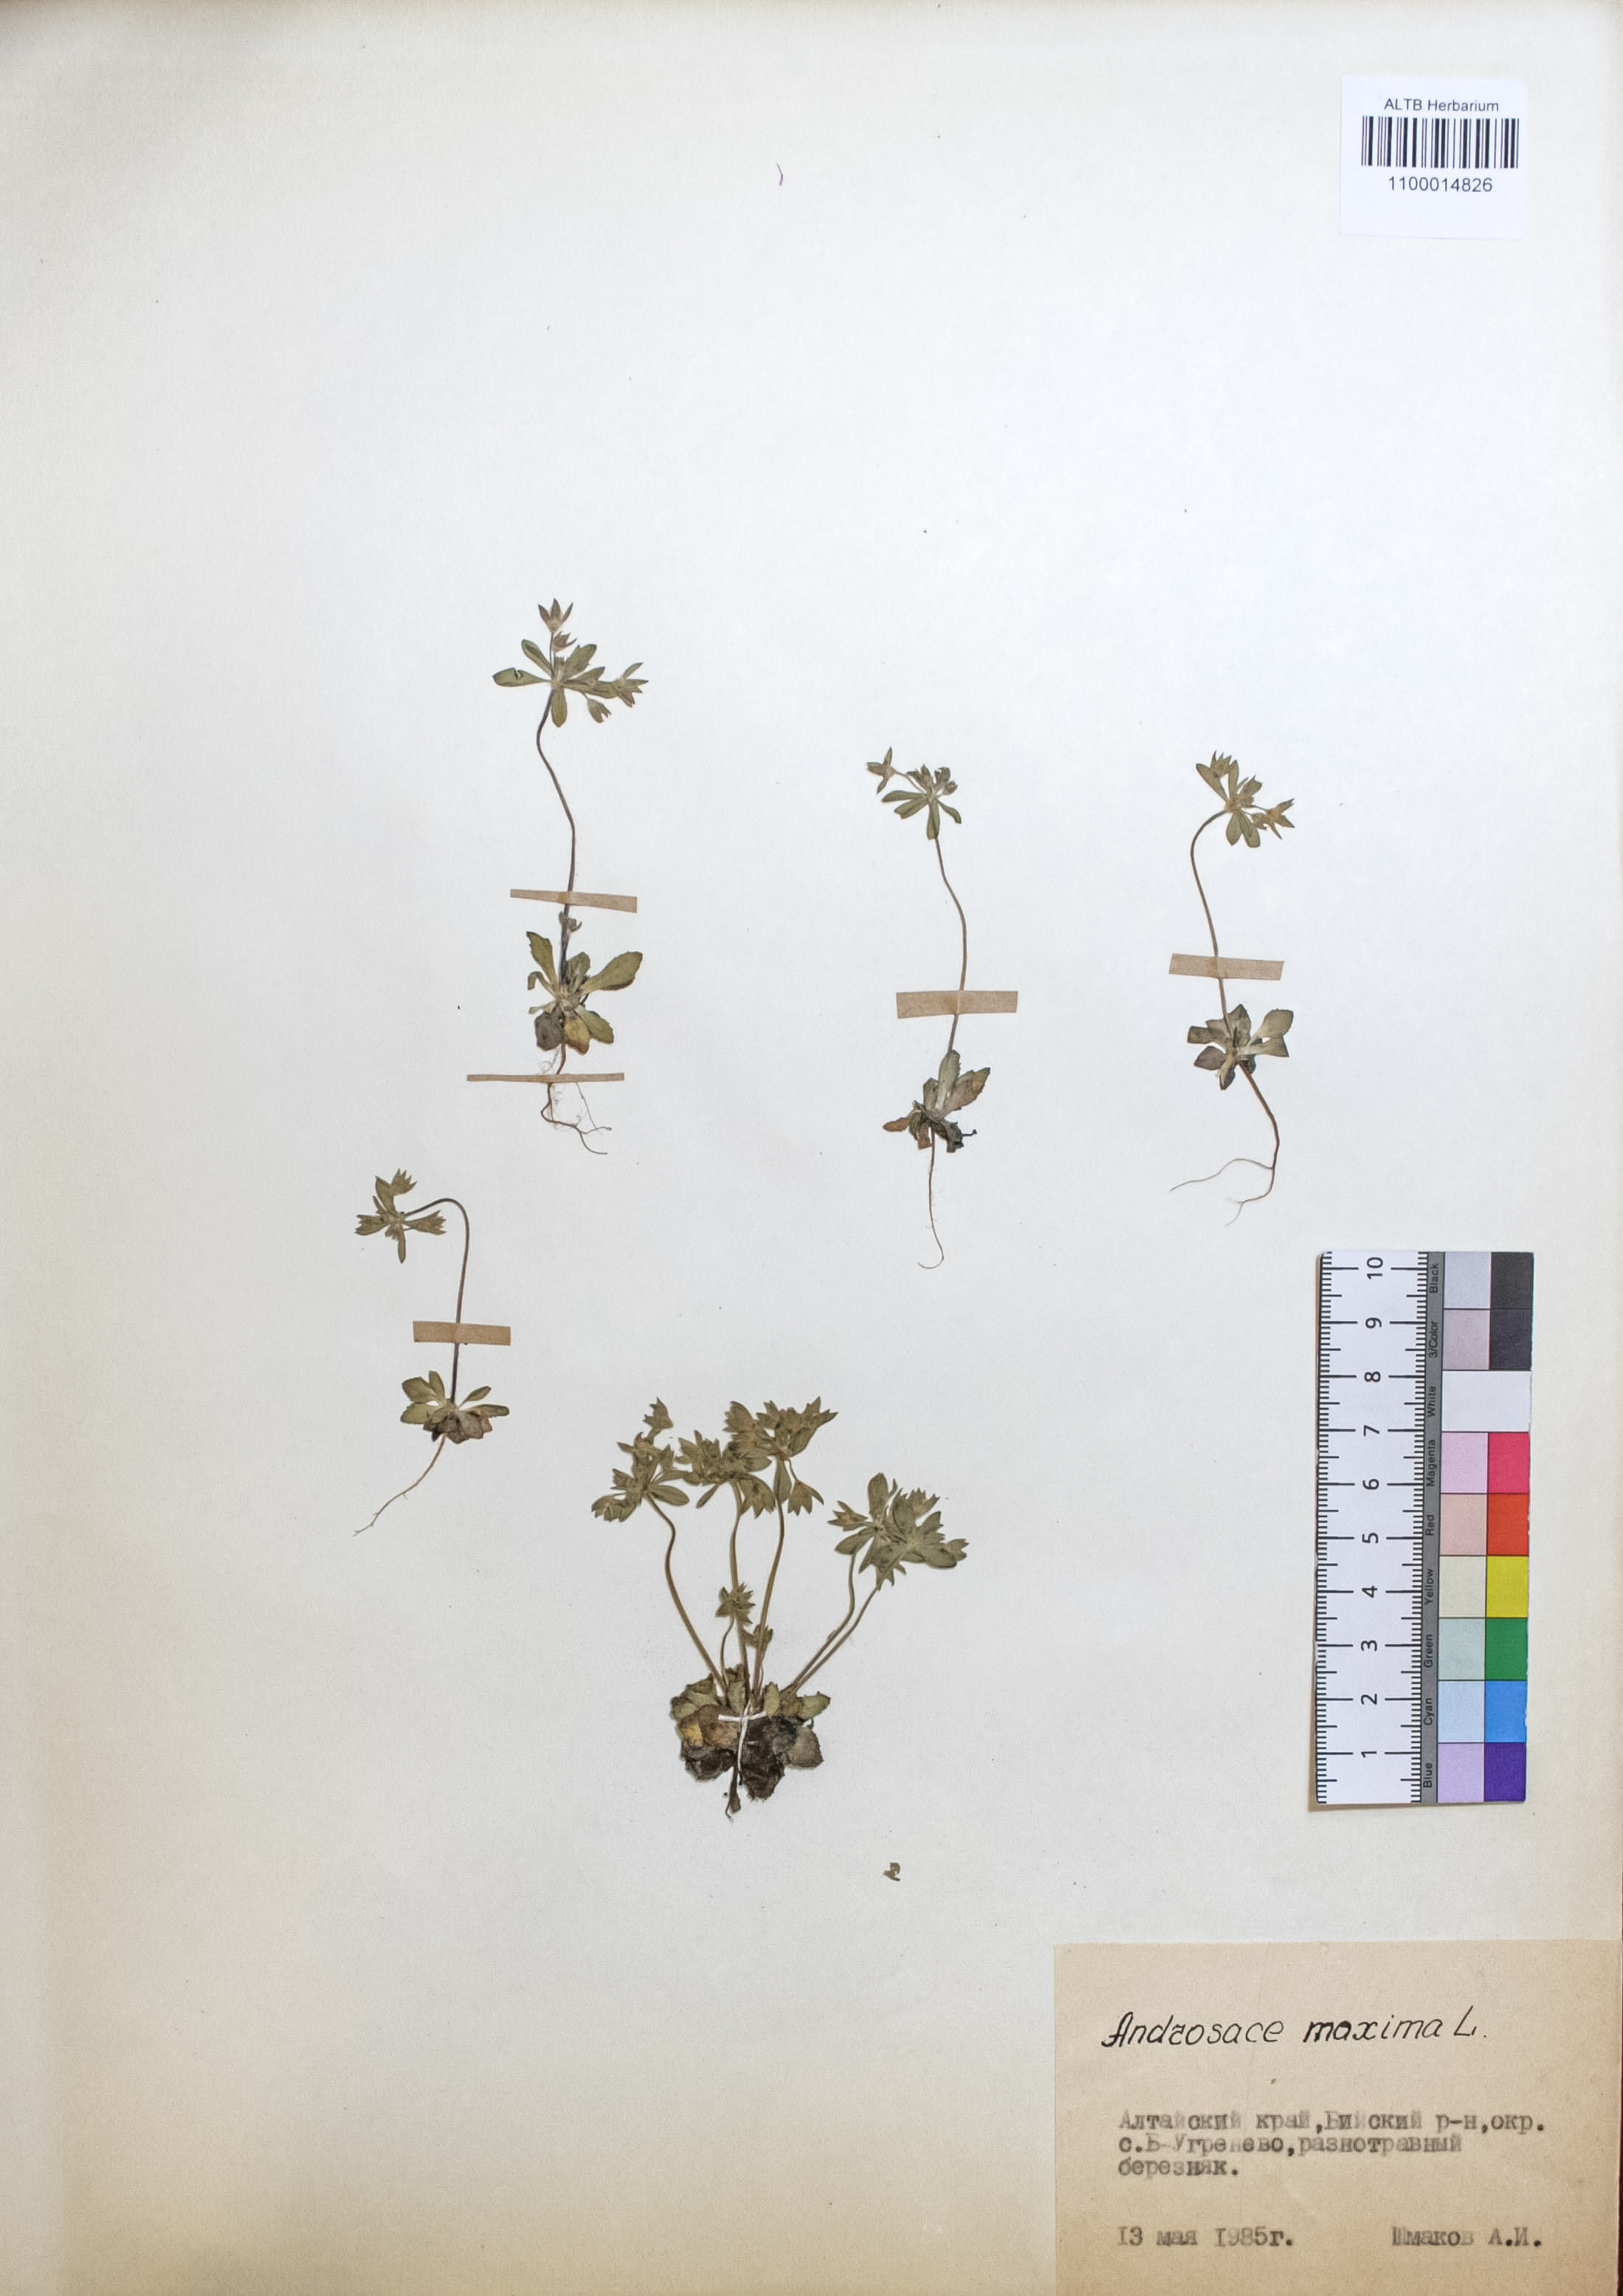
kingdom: Plantae
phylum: Tracheophyta
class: Magnoliopsida
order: Ericales
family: Primulaceae
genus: Androsace
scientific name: Androsace maxima
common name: Annual androsace
